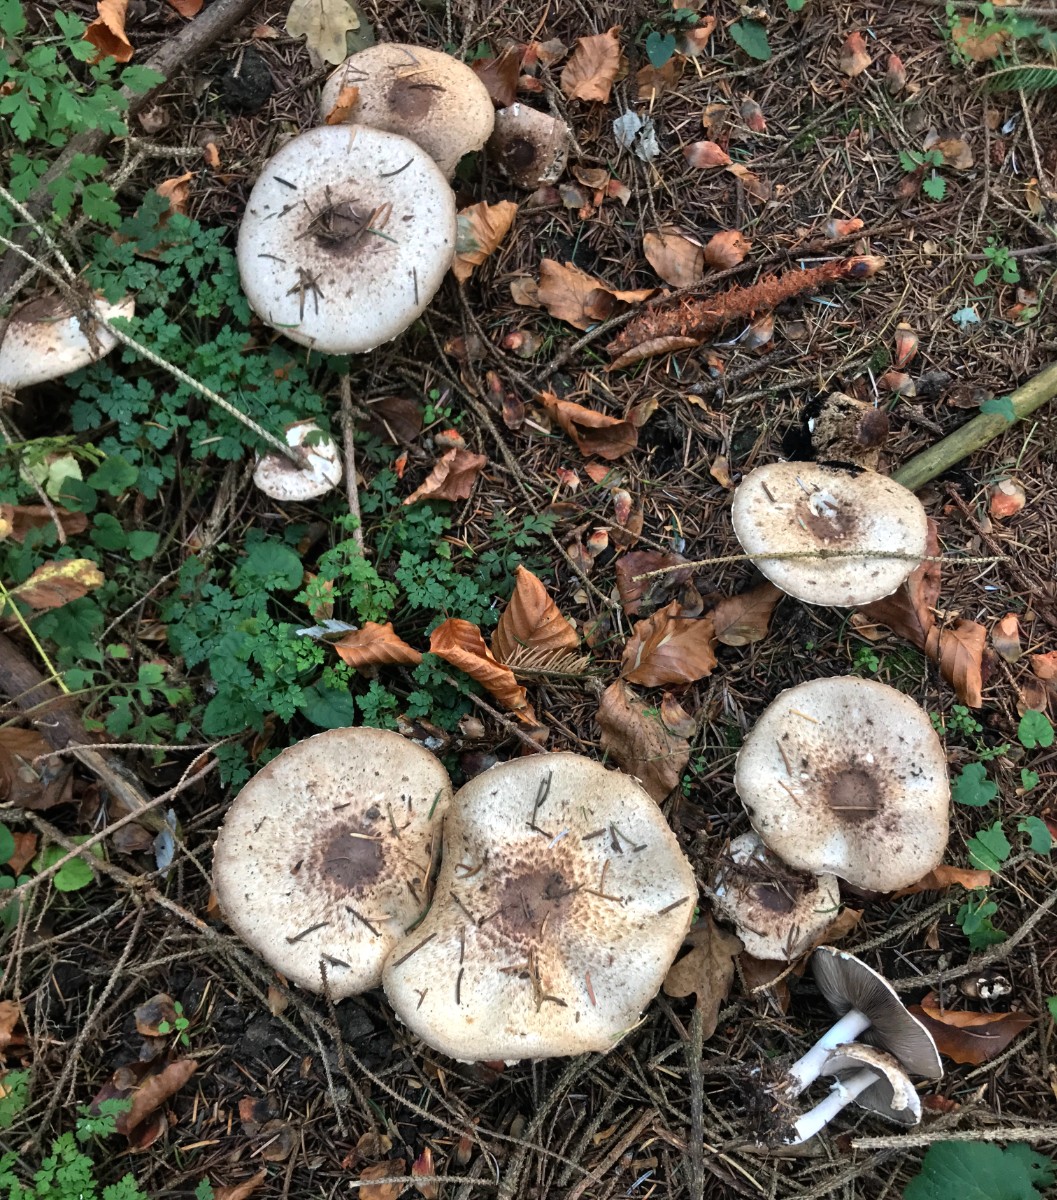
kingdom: Fungi
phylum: Basidiomycota
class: Agaricomycetes
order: Agaricales
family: Agaricaceae
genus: Agaricus
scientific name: Agaricus impudicus
